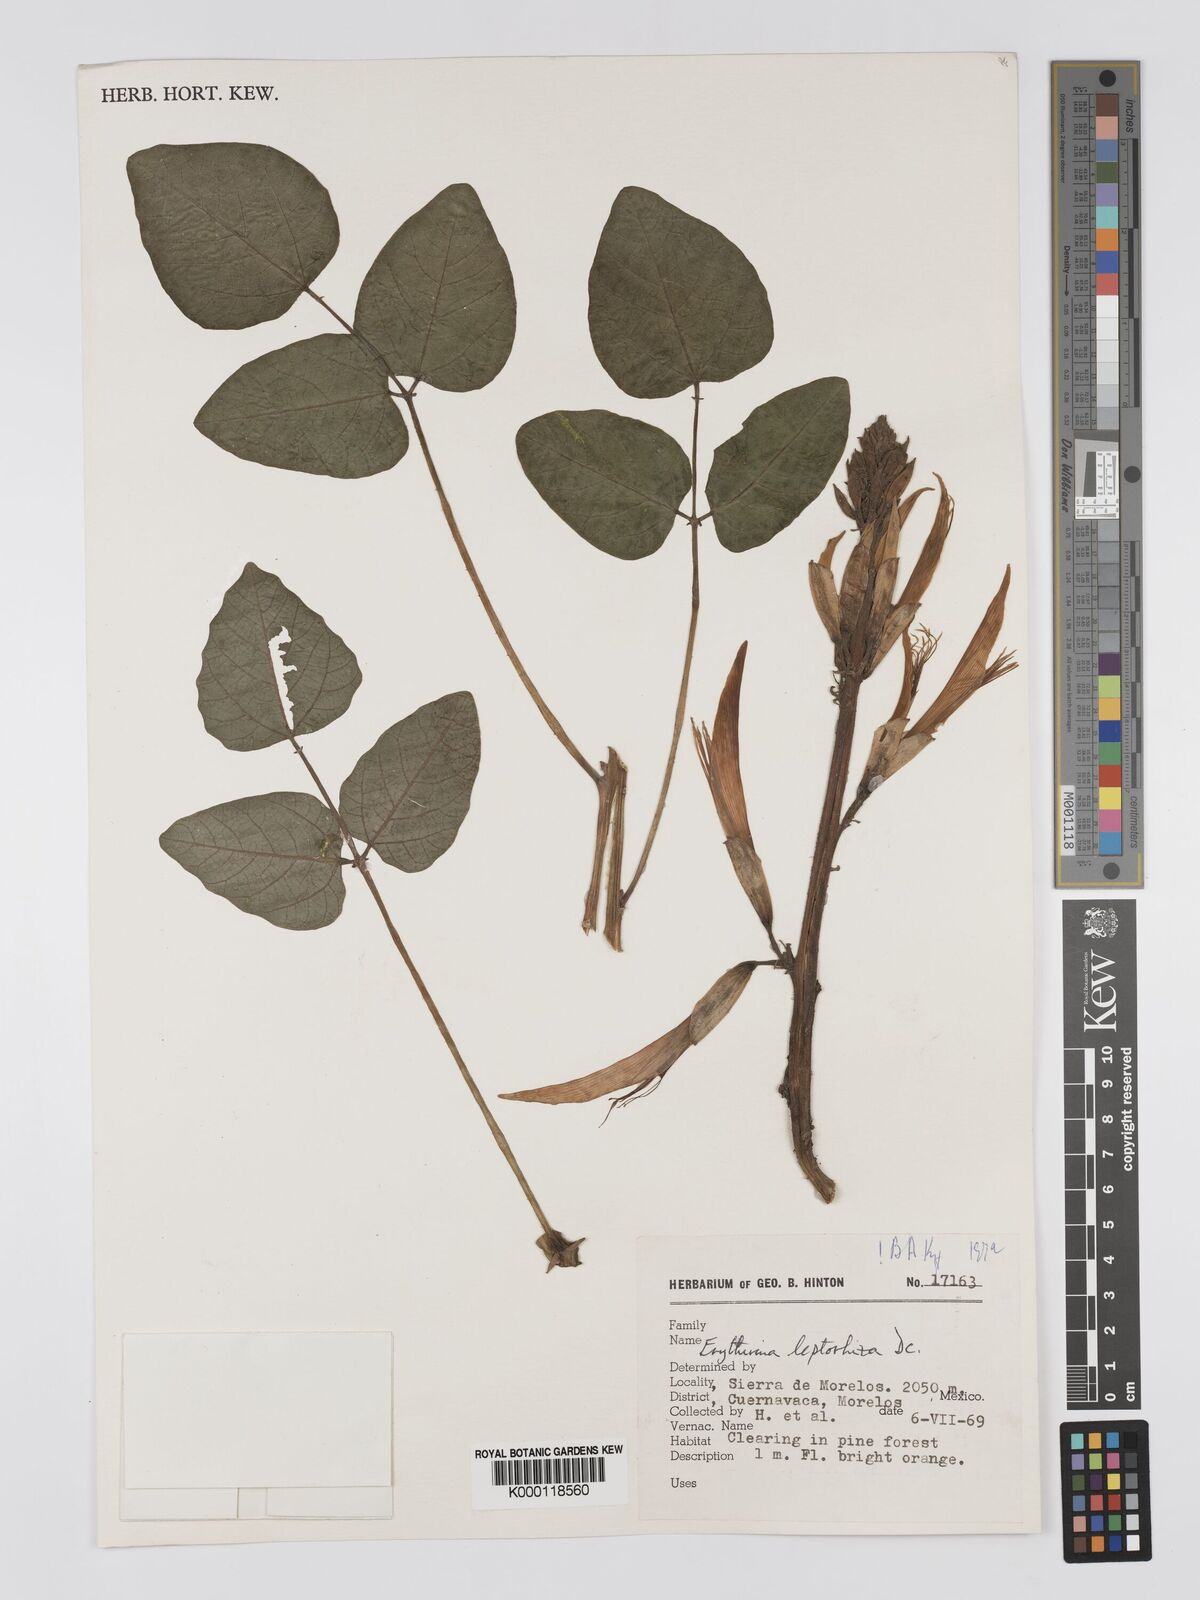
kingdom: Plantae
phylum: Tracheophyta
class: Magnoliopsida
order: Fabales
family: Fabaceae
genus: Erythrina
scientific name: Erythrina leptorhiza
